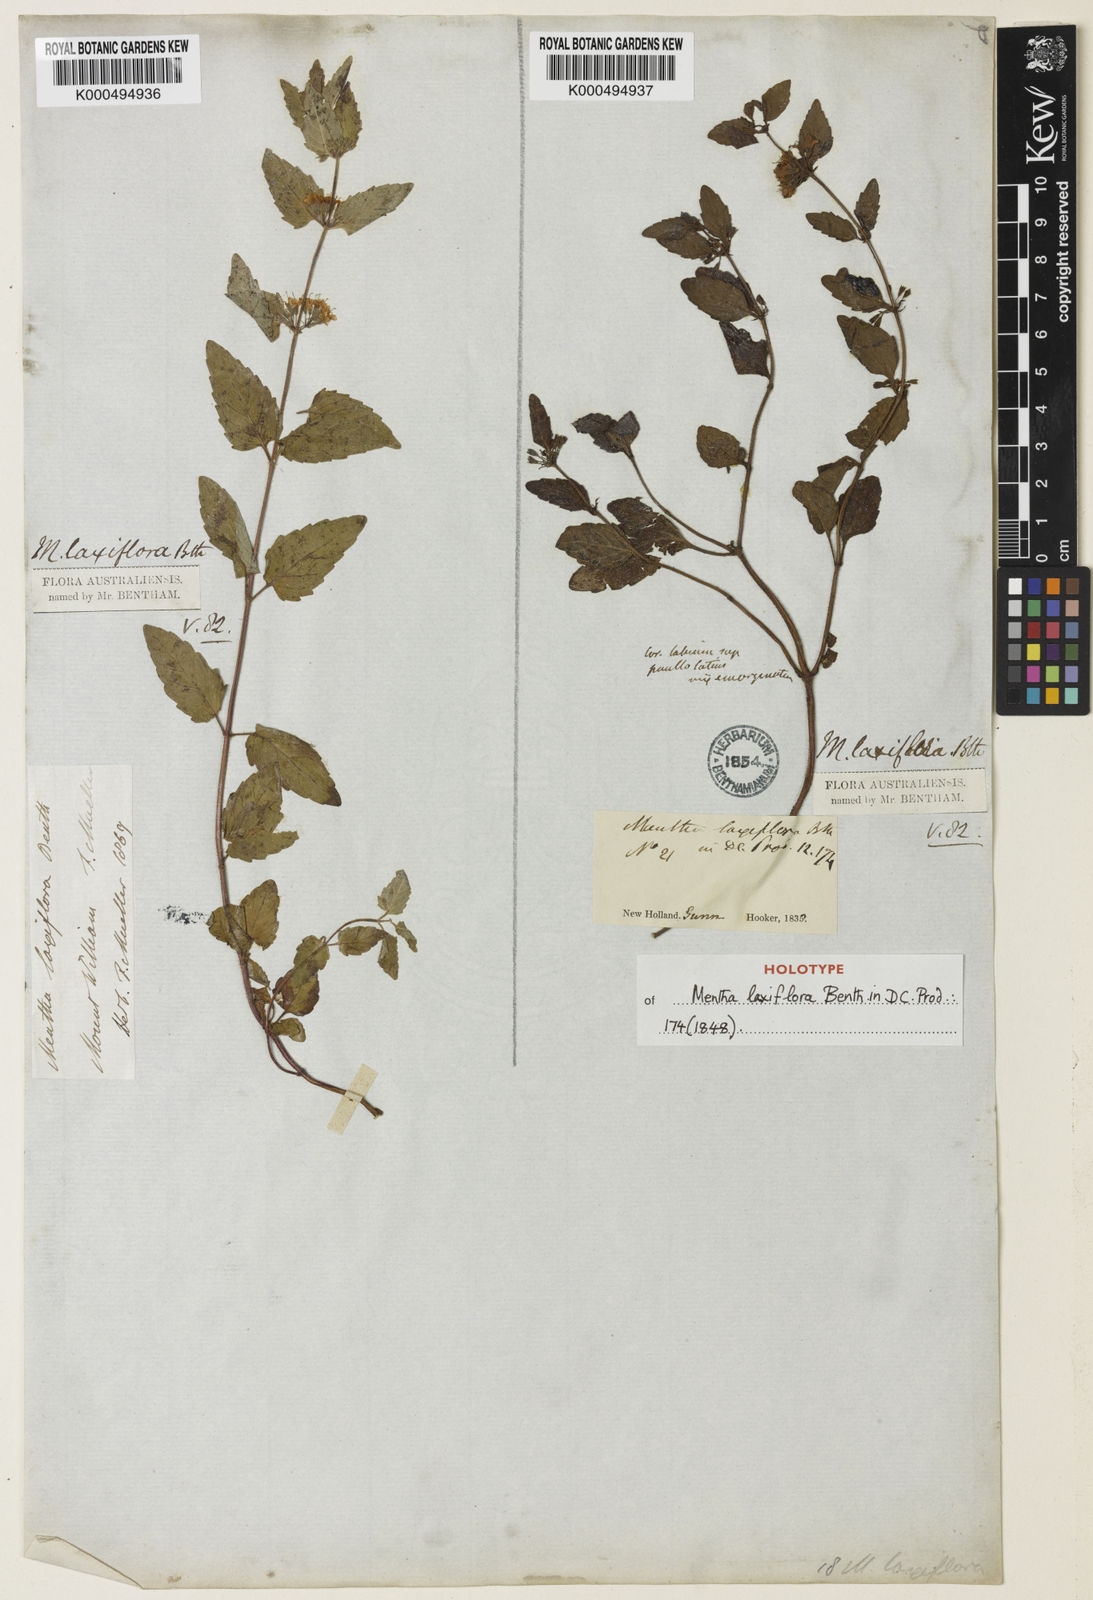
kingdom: Plantae
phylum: Tracheophyta
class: Magnoliopsida
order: Lamiales
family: Lamiaceae
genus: Mentha
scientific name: Mentha laxiflora
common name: Forest mint
